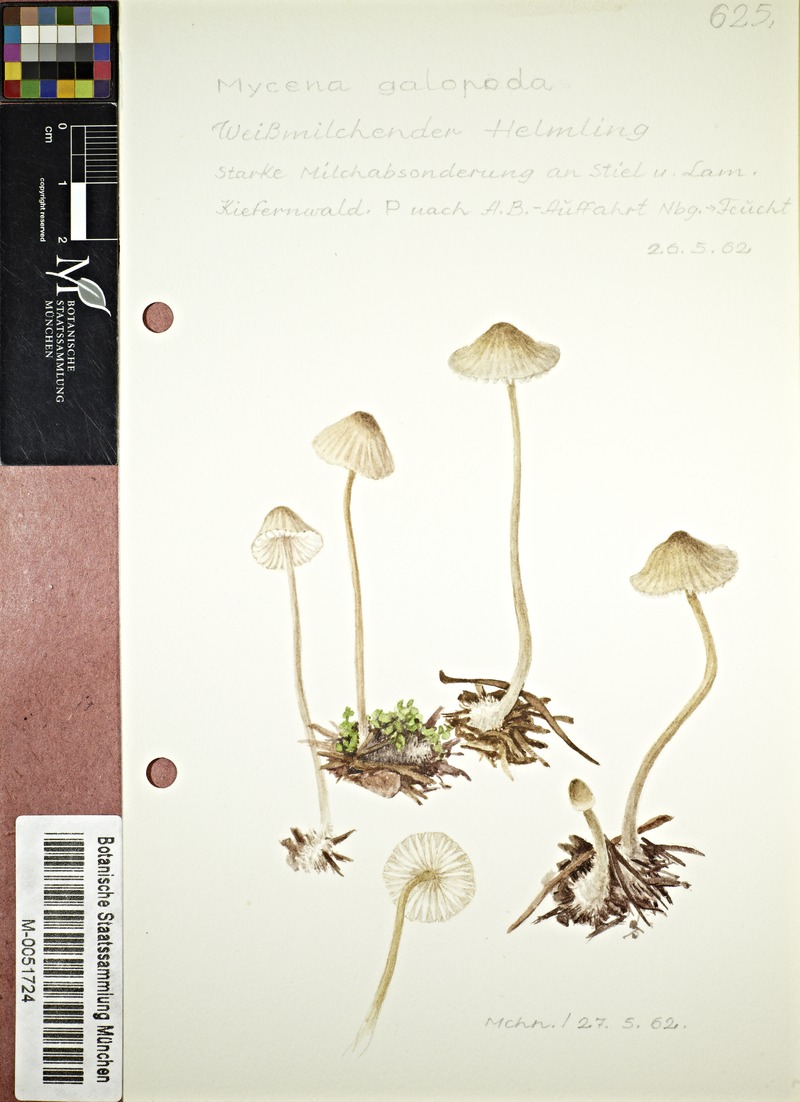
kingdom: Fungi
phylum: Basidiomycota
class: Agaricomycetes
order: Agaricales
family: Mycenaceae
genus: Mycena
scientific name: Mycena galopus
